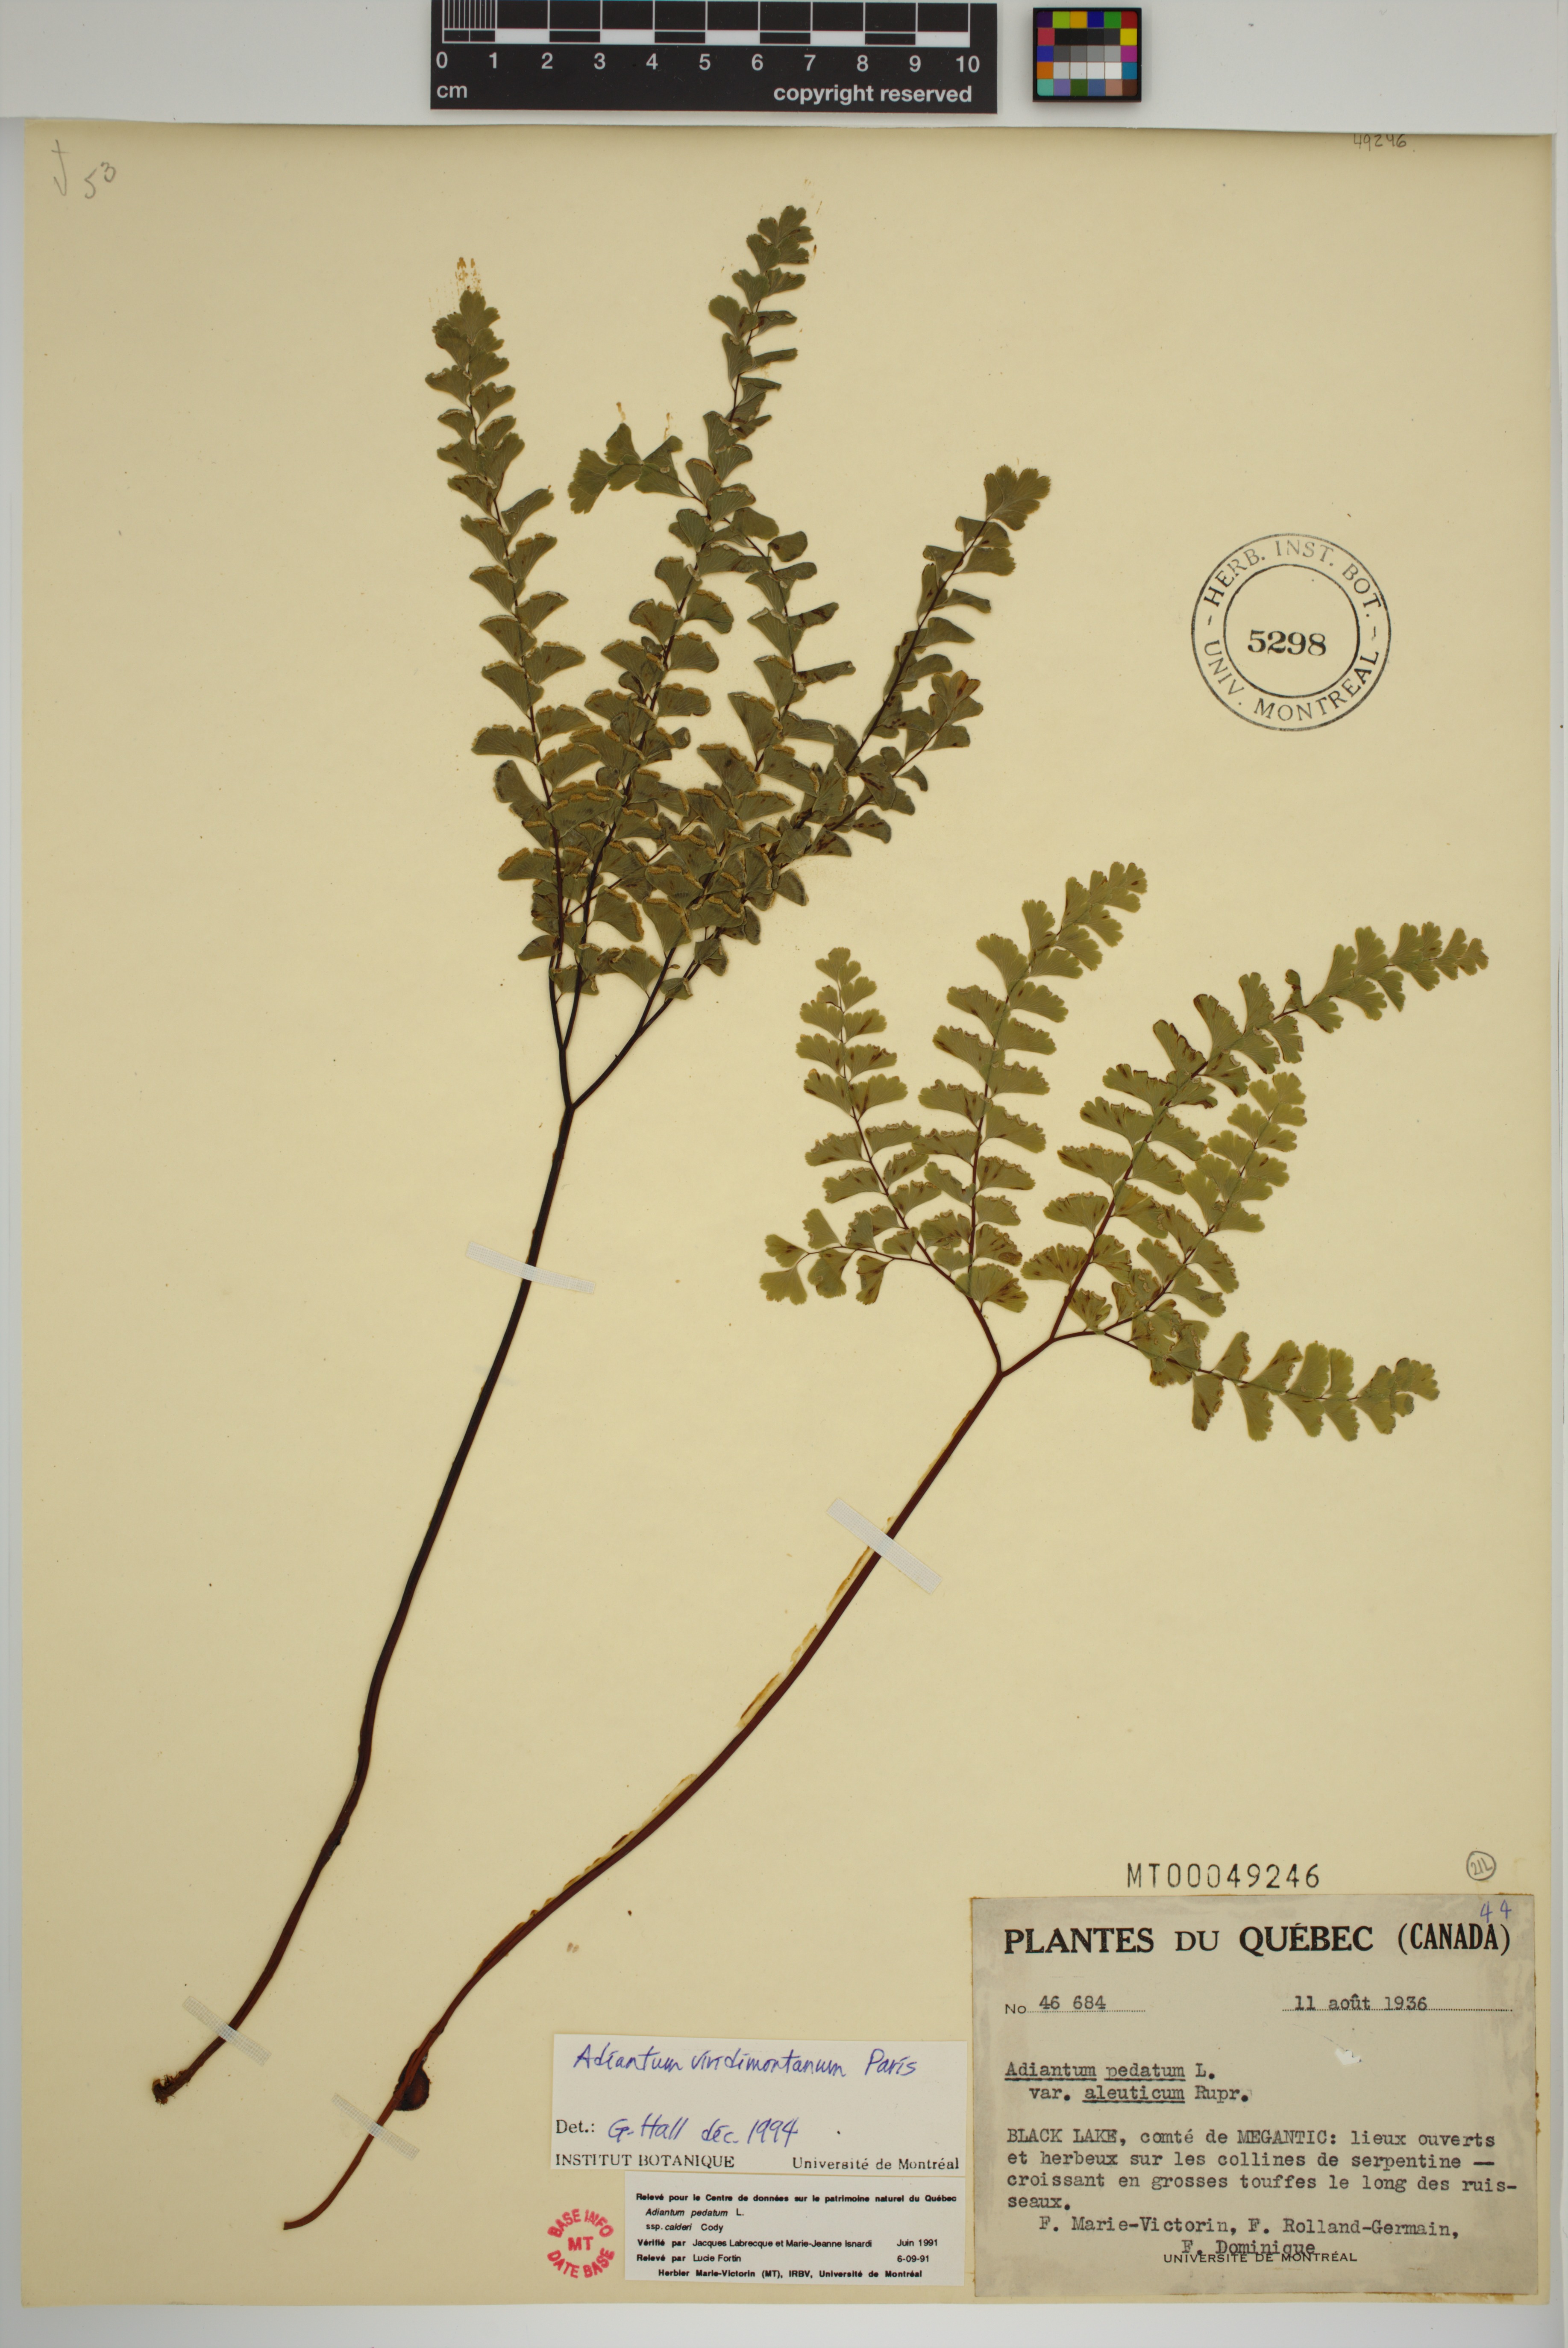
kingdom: Plantae
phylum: Tracheophyta
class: Polypodiopsida
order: Polypodiales
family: Pteridaceae
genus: Adiantum
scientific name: Adiantum viridimontanum
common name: Green mountain maidenhair
